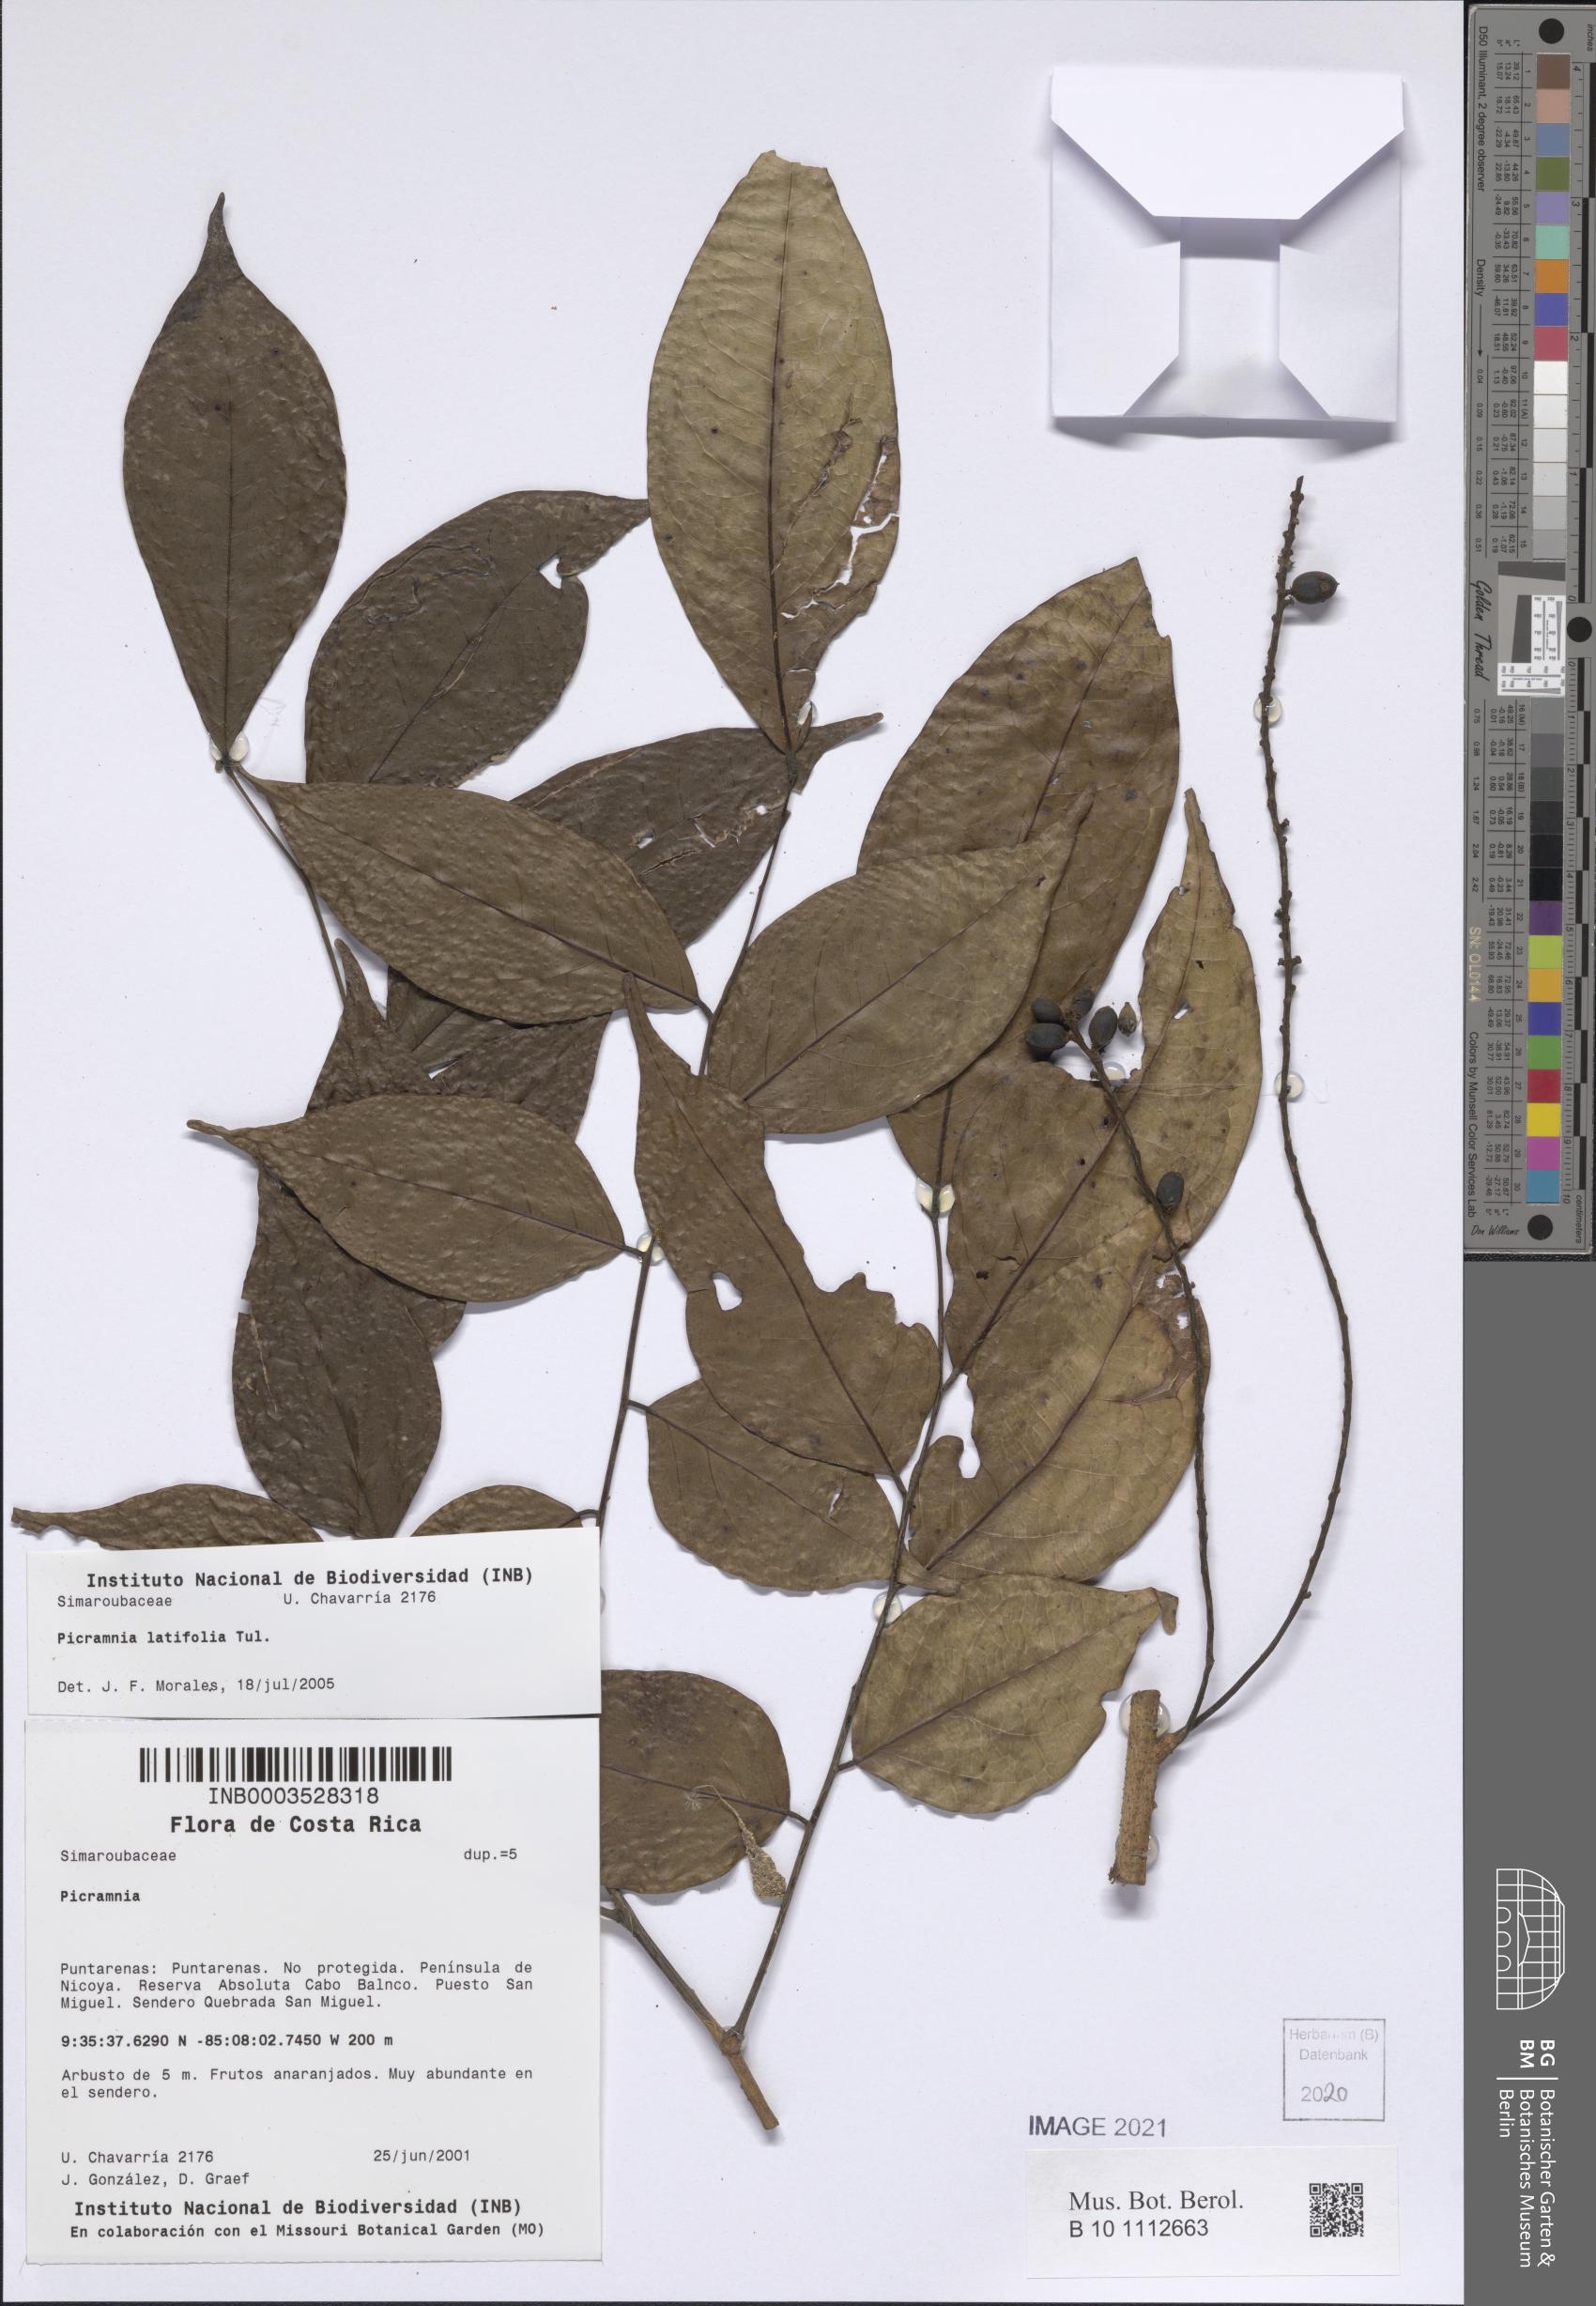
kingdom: Plantae
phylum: Tracheophyta
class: Magnoliopsida
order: Picramniales
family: Picramniaceae
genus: Picramnia
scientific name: Picramnia latifolia
